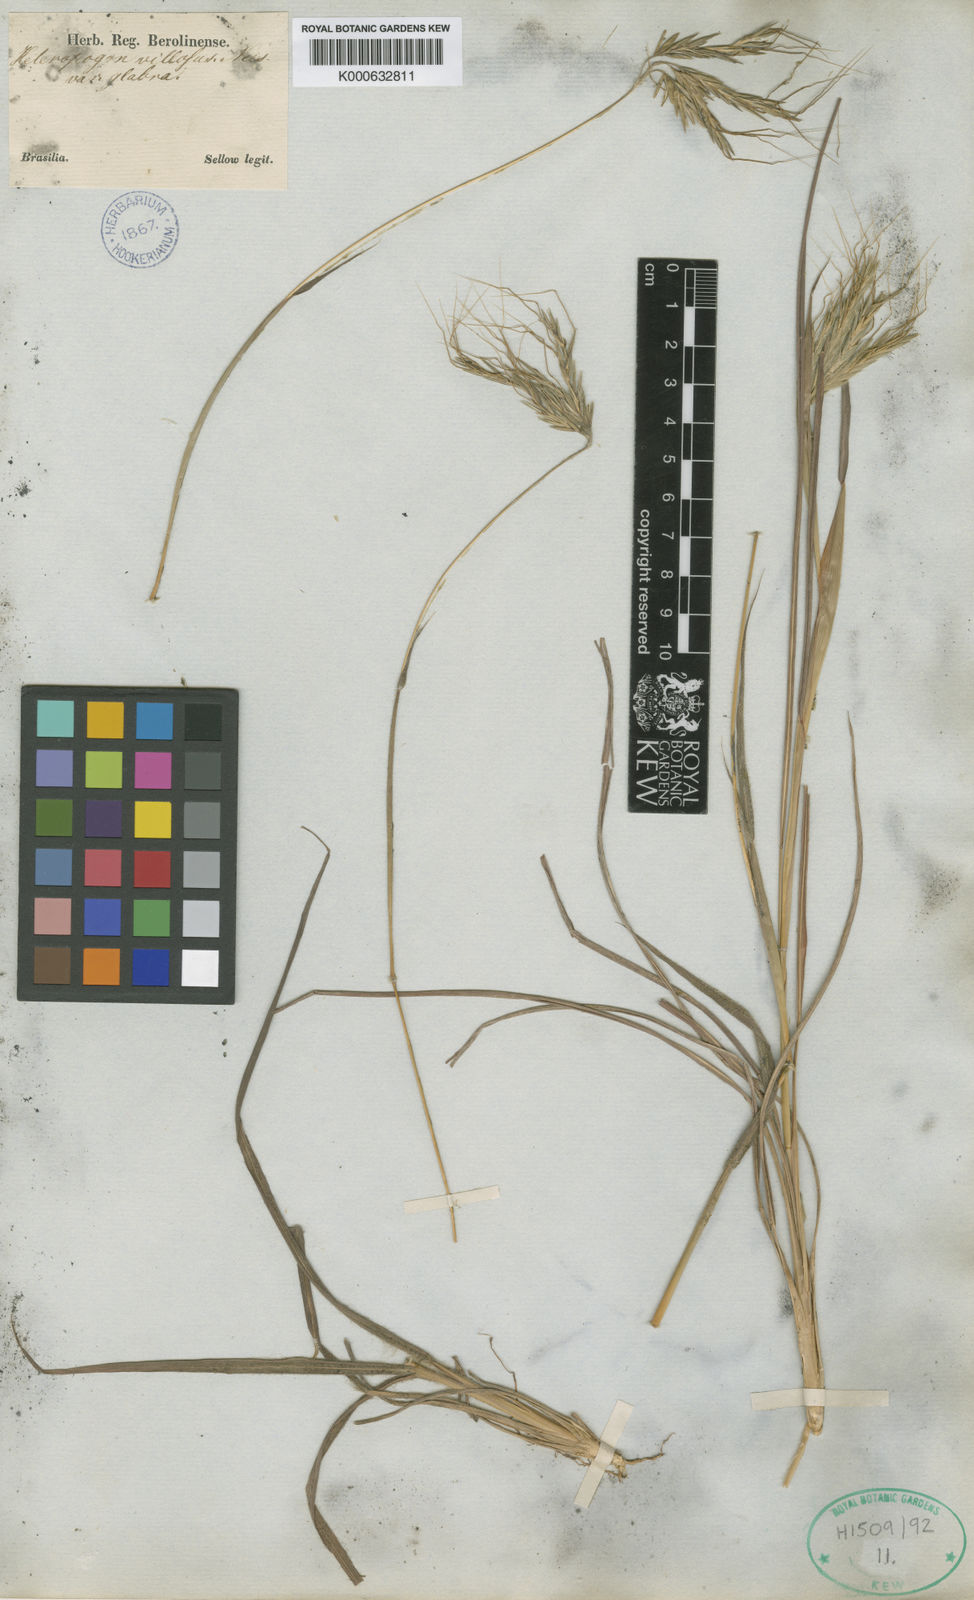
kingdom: Plantae
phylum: Tracheophyta
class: Liliopsida
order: Poales
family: Poaceae
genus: Agenium
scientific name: Agenium villosum
